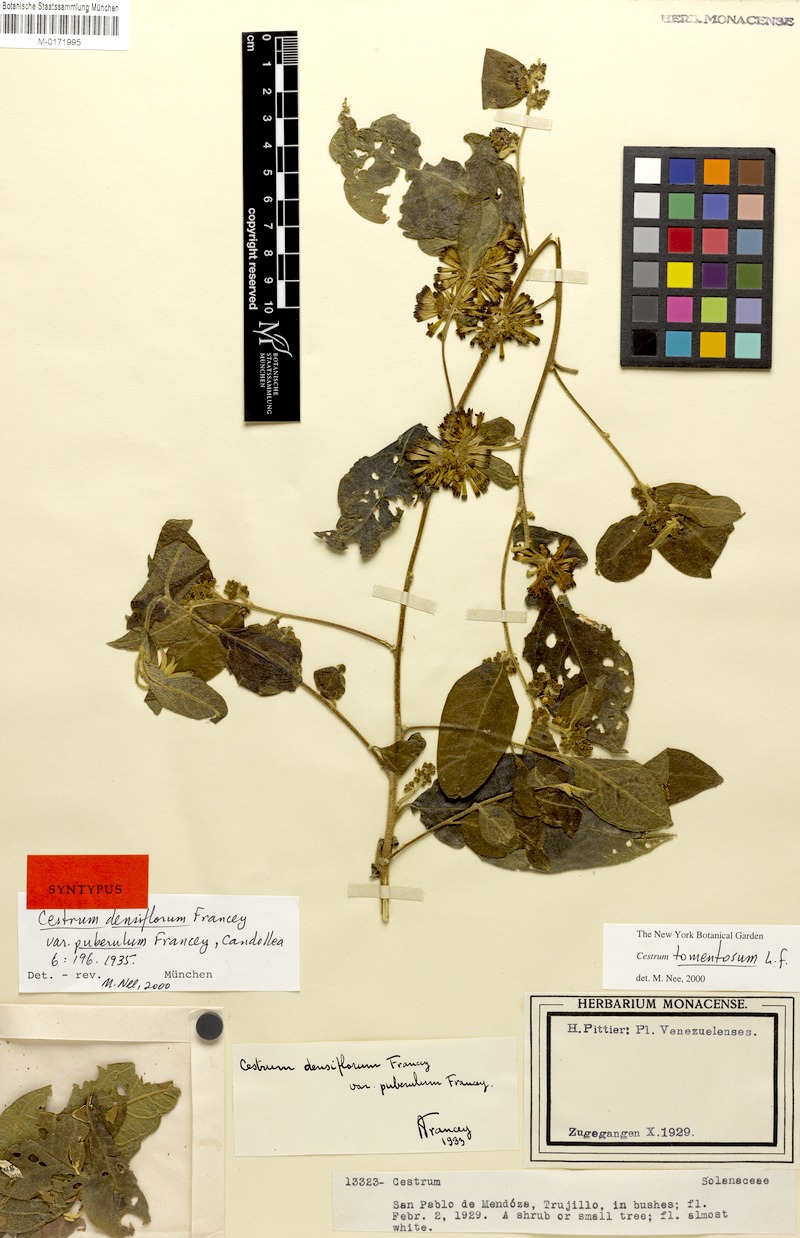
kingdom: Plantae
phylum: Tracheophyta
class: Magnoliopsida
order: Solanales
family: Solanaceae
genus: Cestrum
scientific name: Cestrum tomentosum
